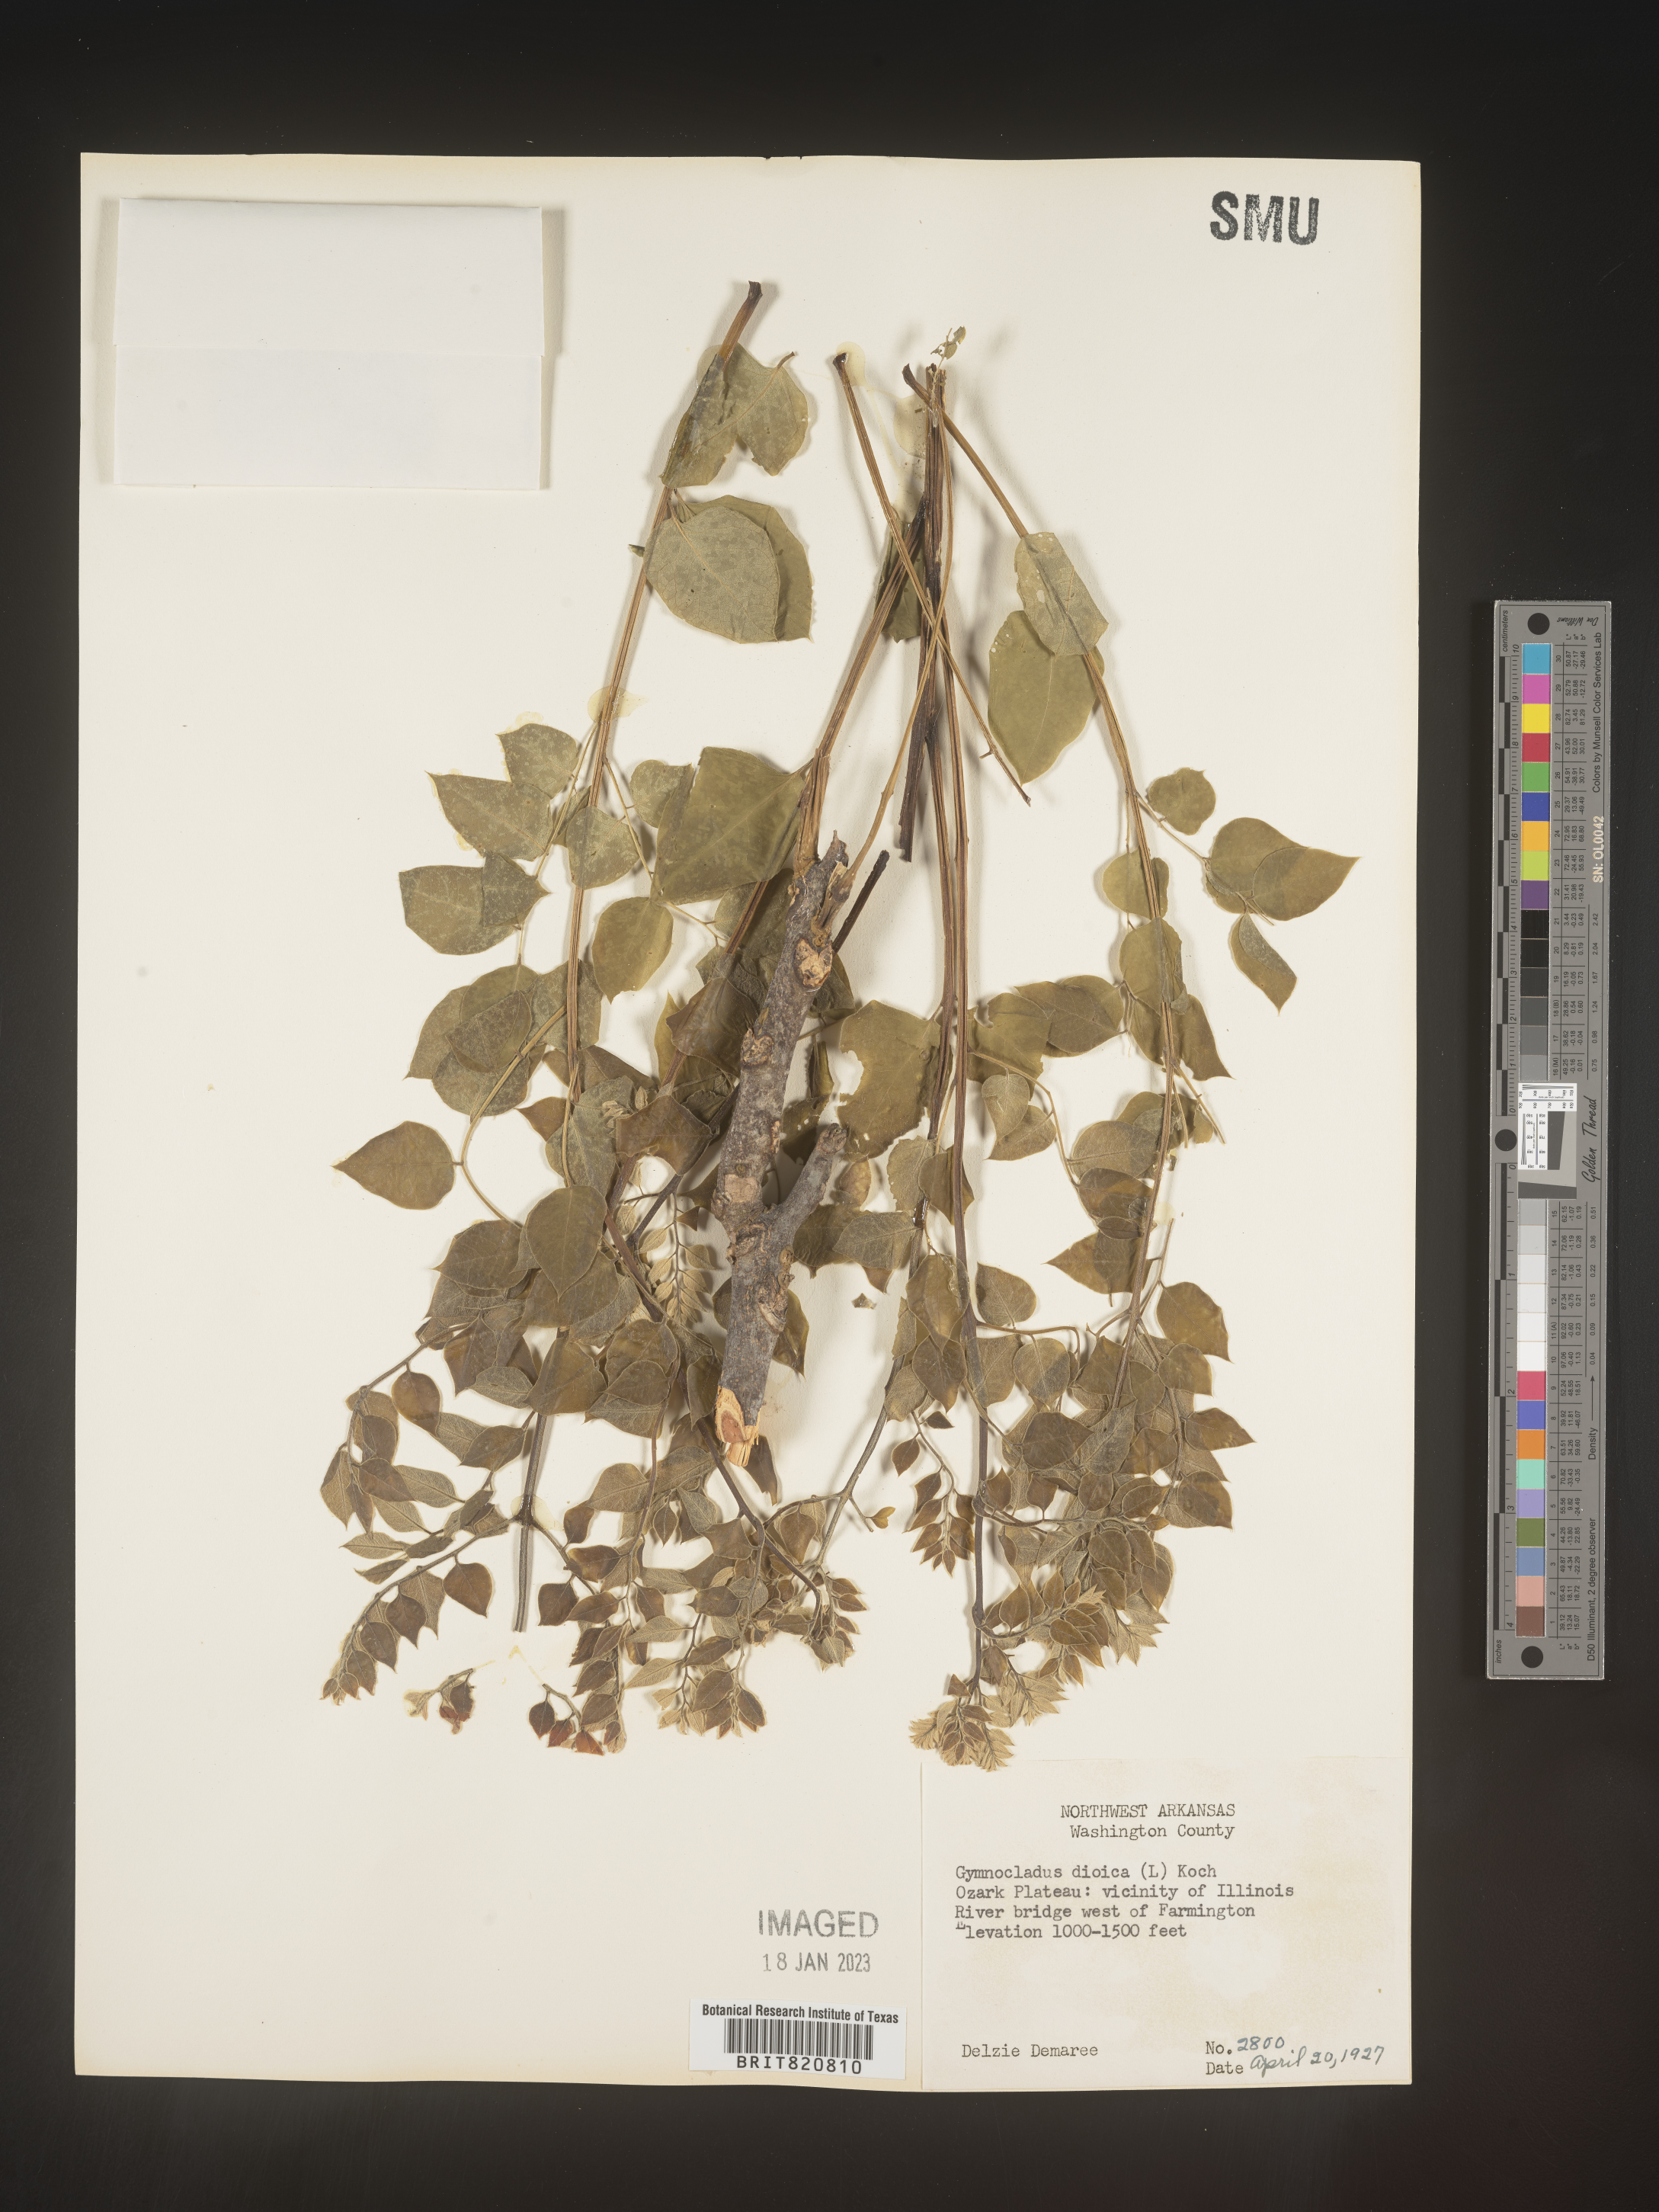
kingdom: Plantae
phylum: Tracheophyta
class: Magnoliopsida
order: Fabales
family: Fabaceae
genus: Gymnocladus
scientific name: Gymnocladus
